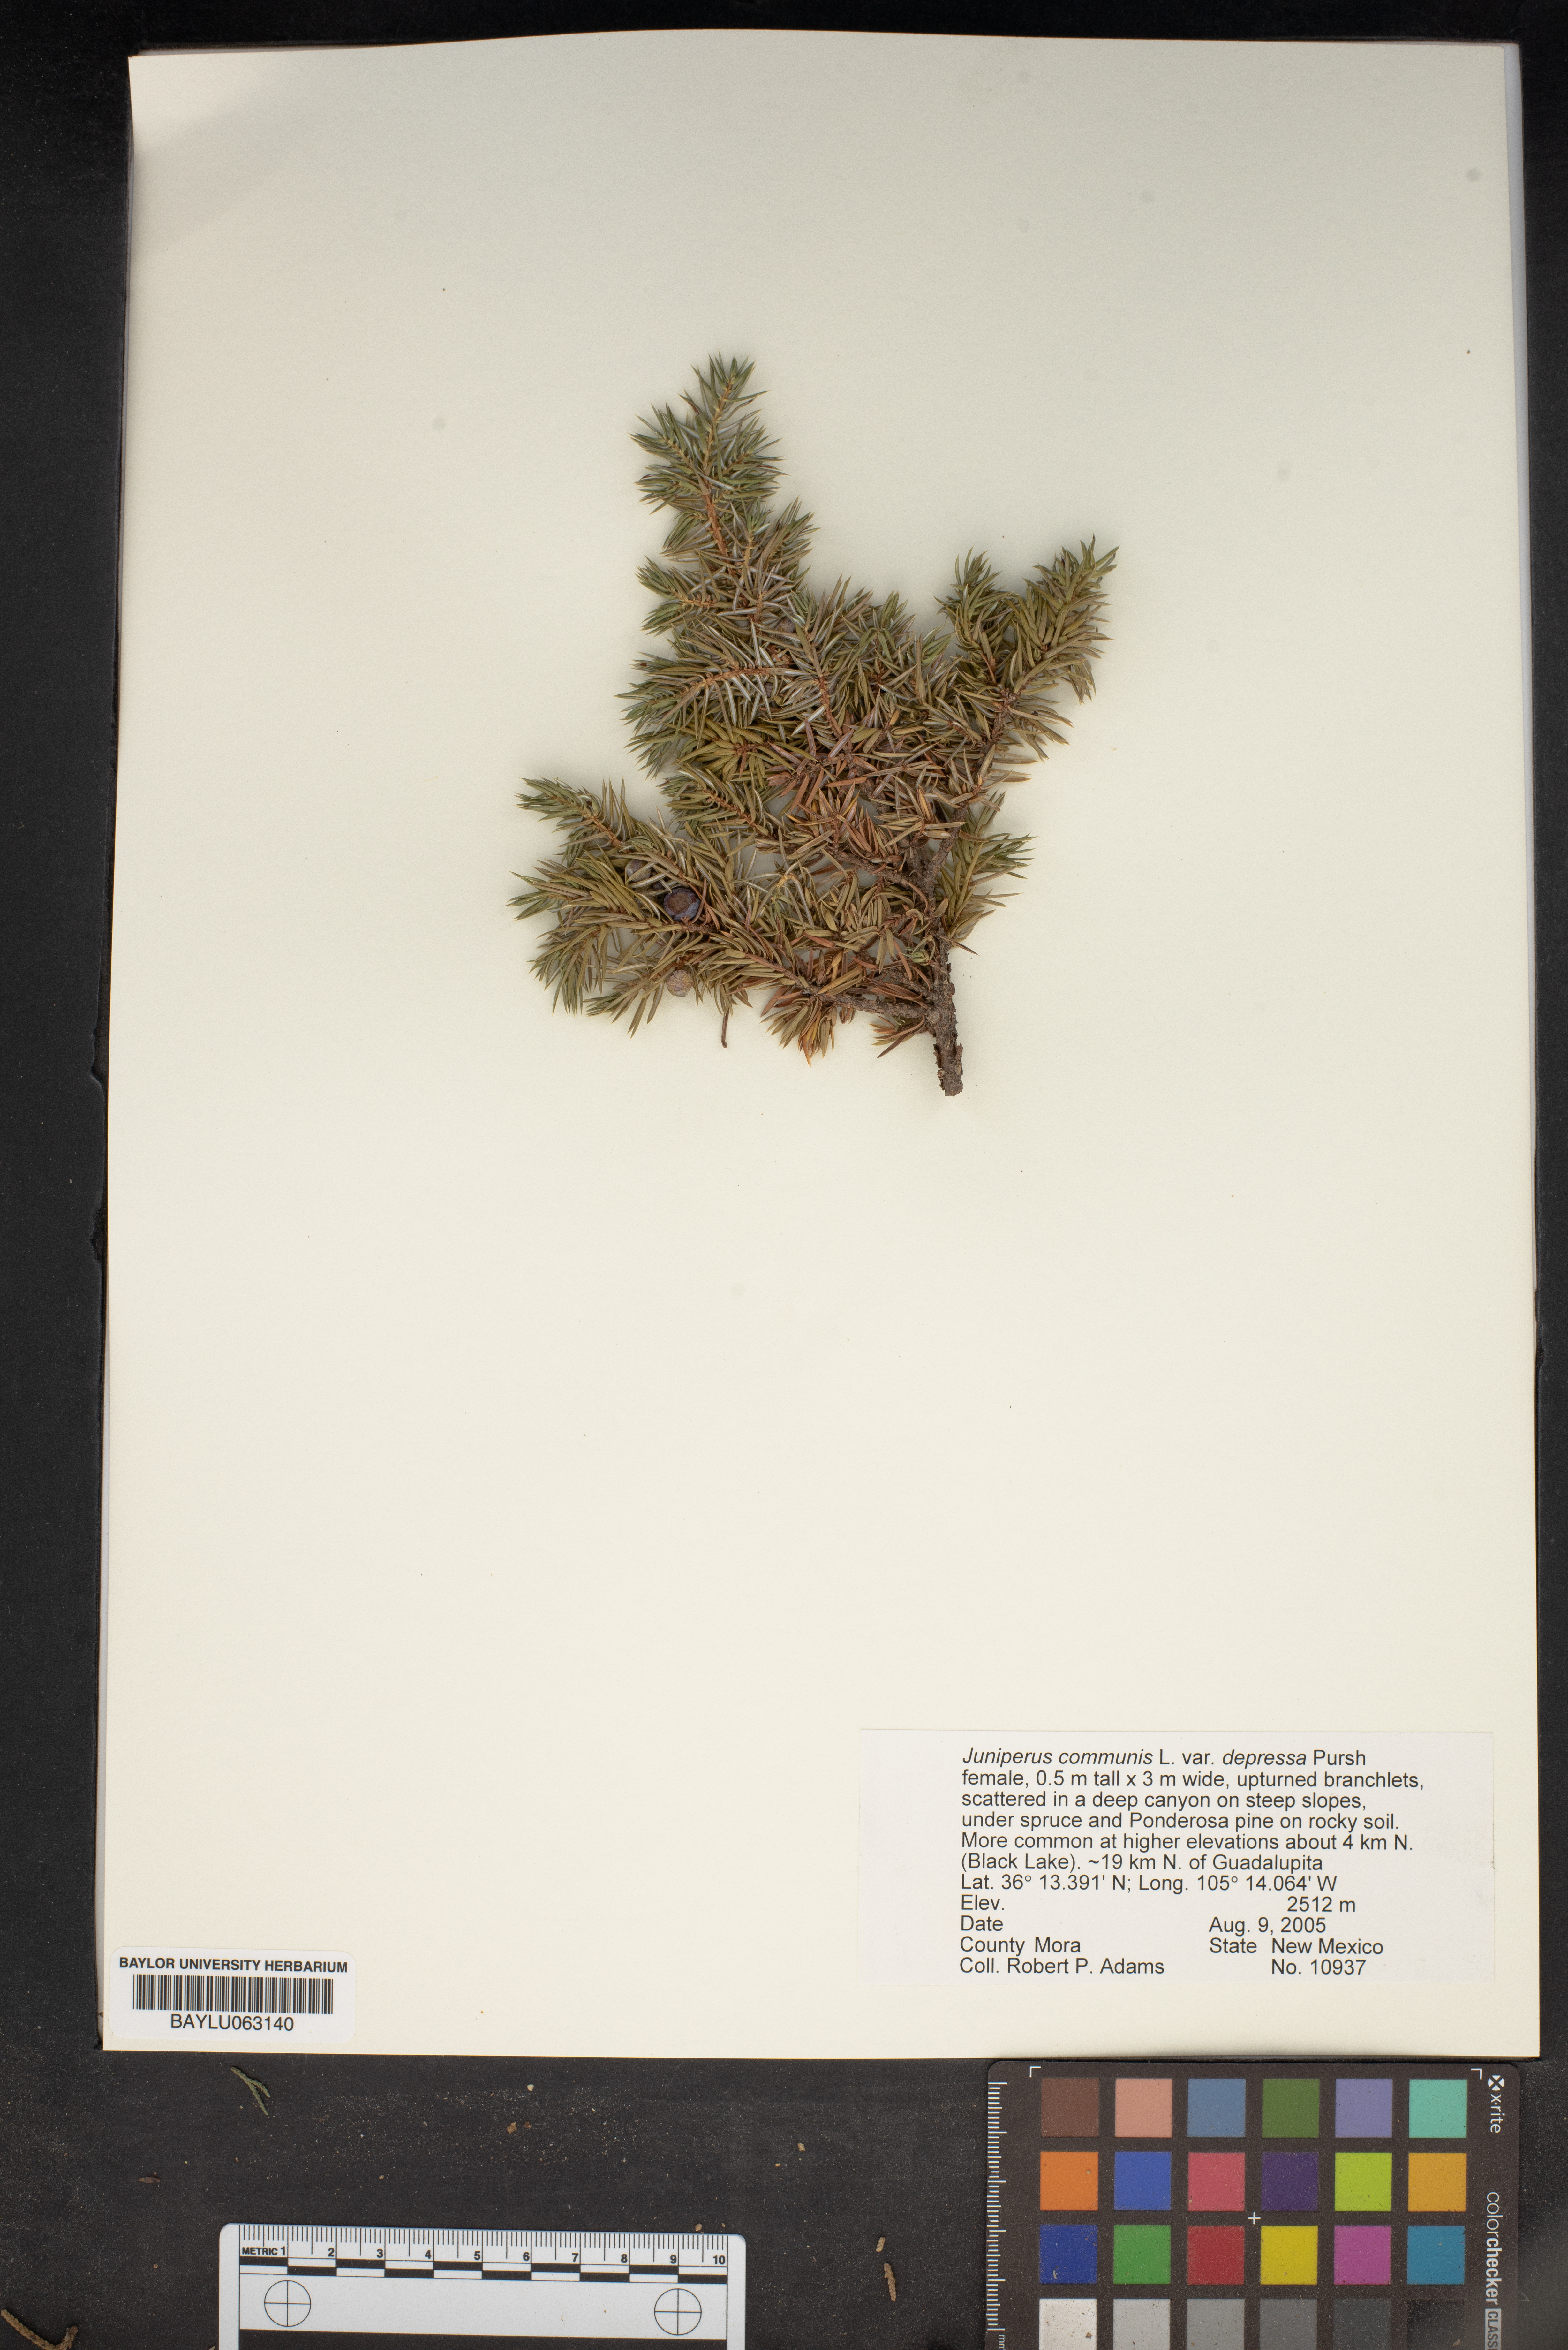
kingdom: Plantae
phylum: Tracheophyta
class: Pinopsida
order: Pinales
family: Cupressaceae
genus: Juniperus
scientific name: Juniperus communis
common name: Common juniper
